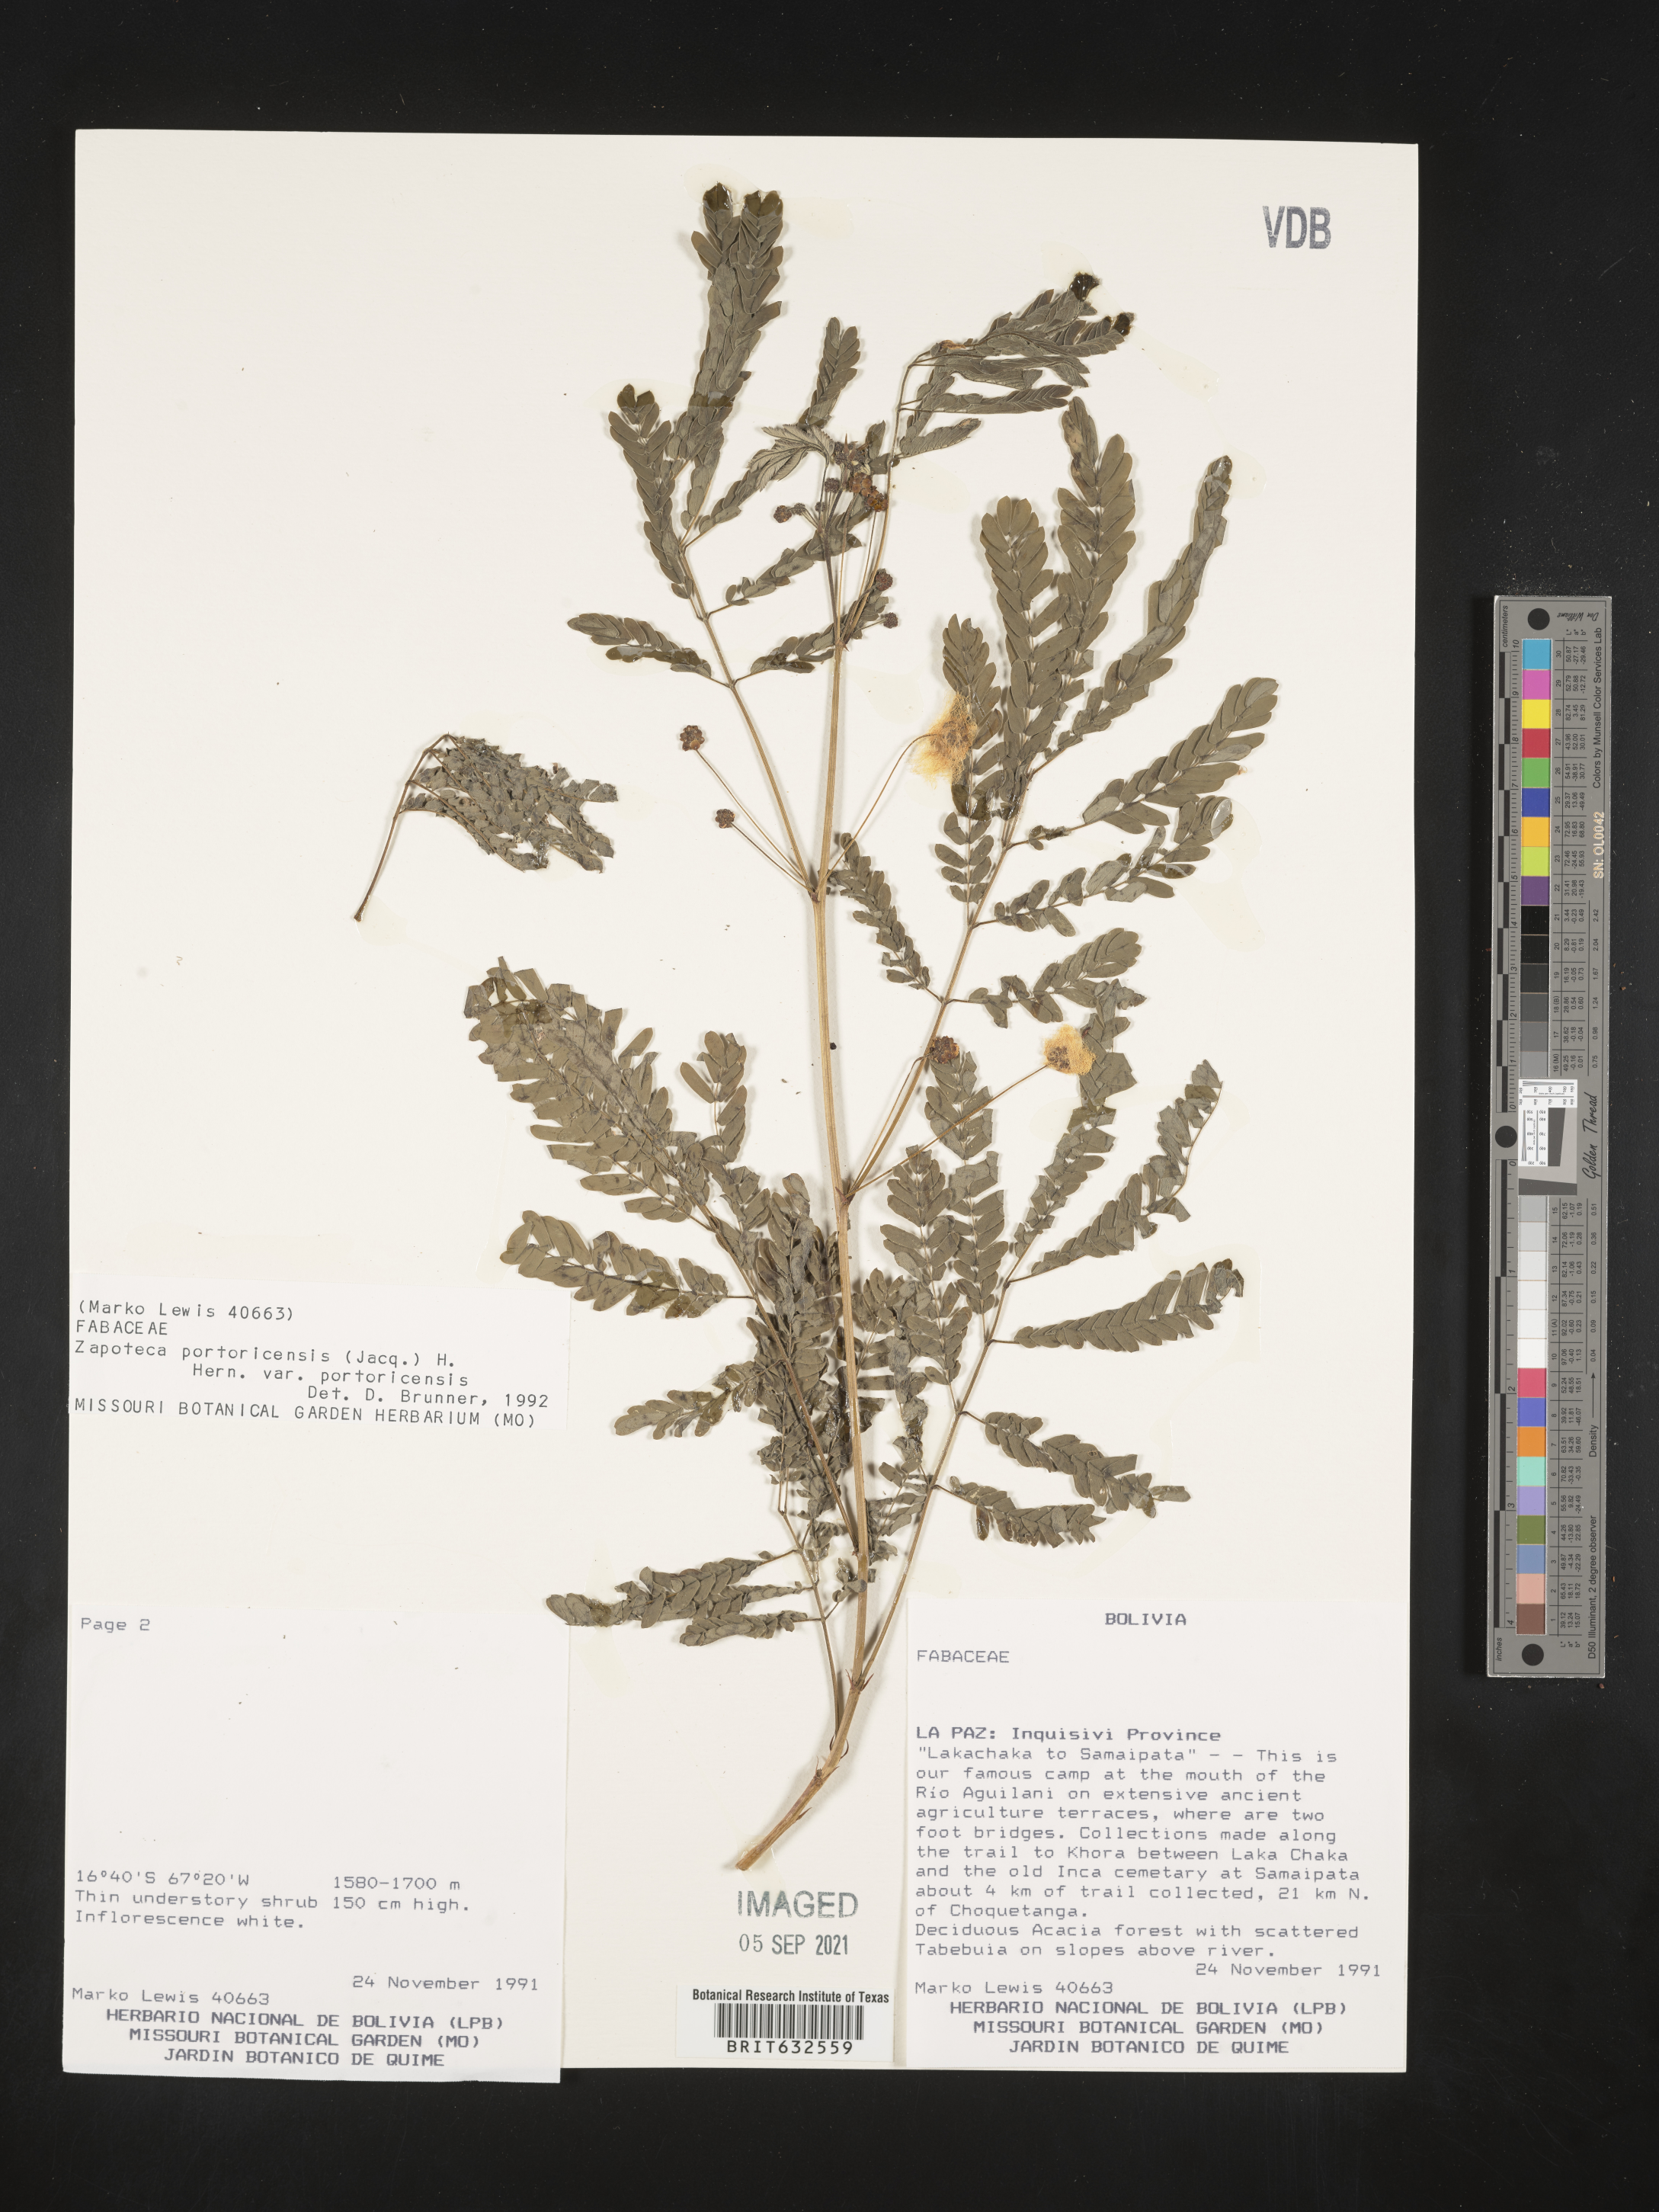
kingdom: Plantae
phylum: Tracheophyta
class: Magnoliopsida
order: Fabales
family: Fabaceae
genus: Zapoteca
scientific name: Zapoteca
